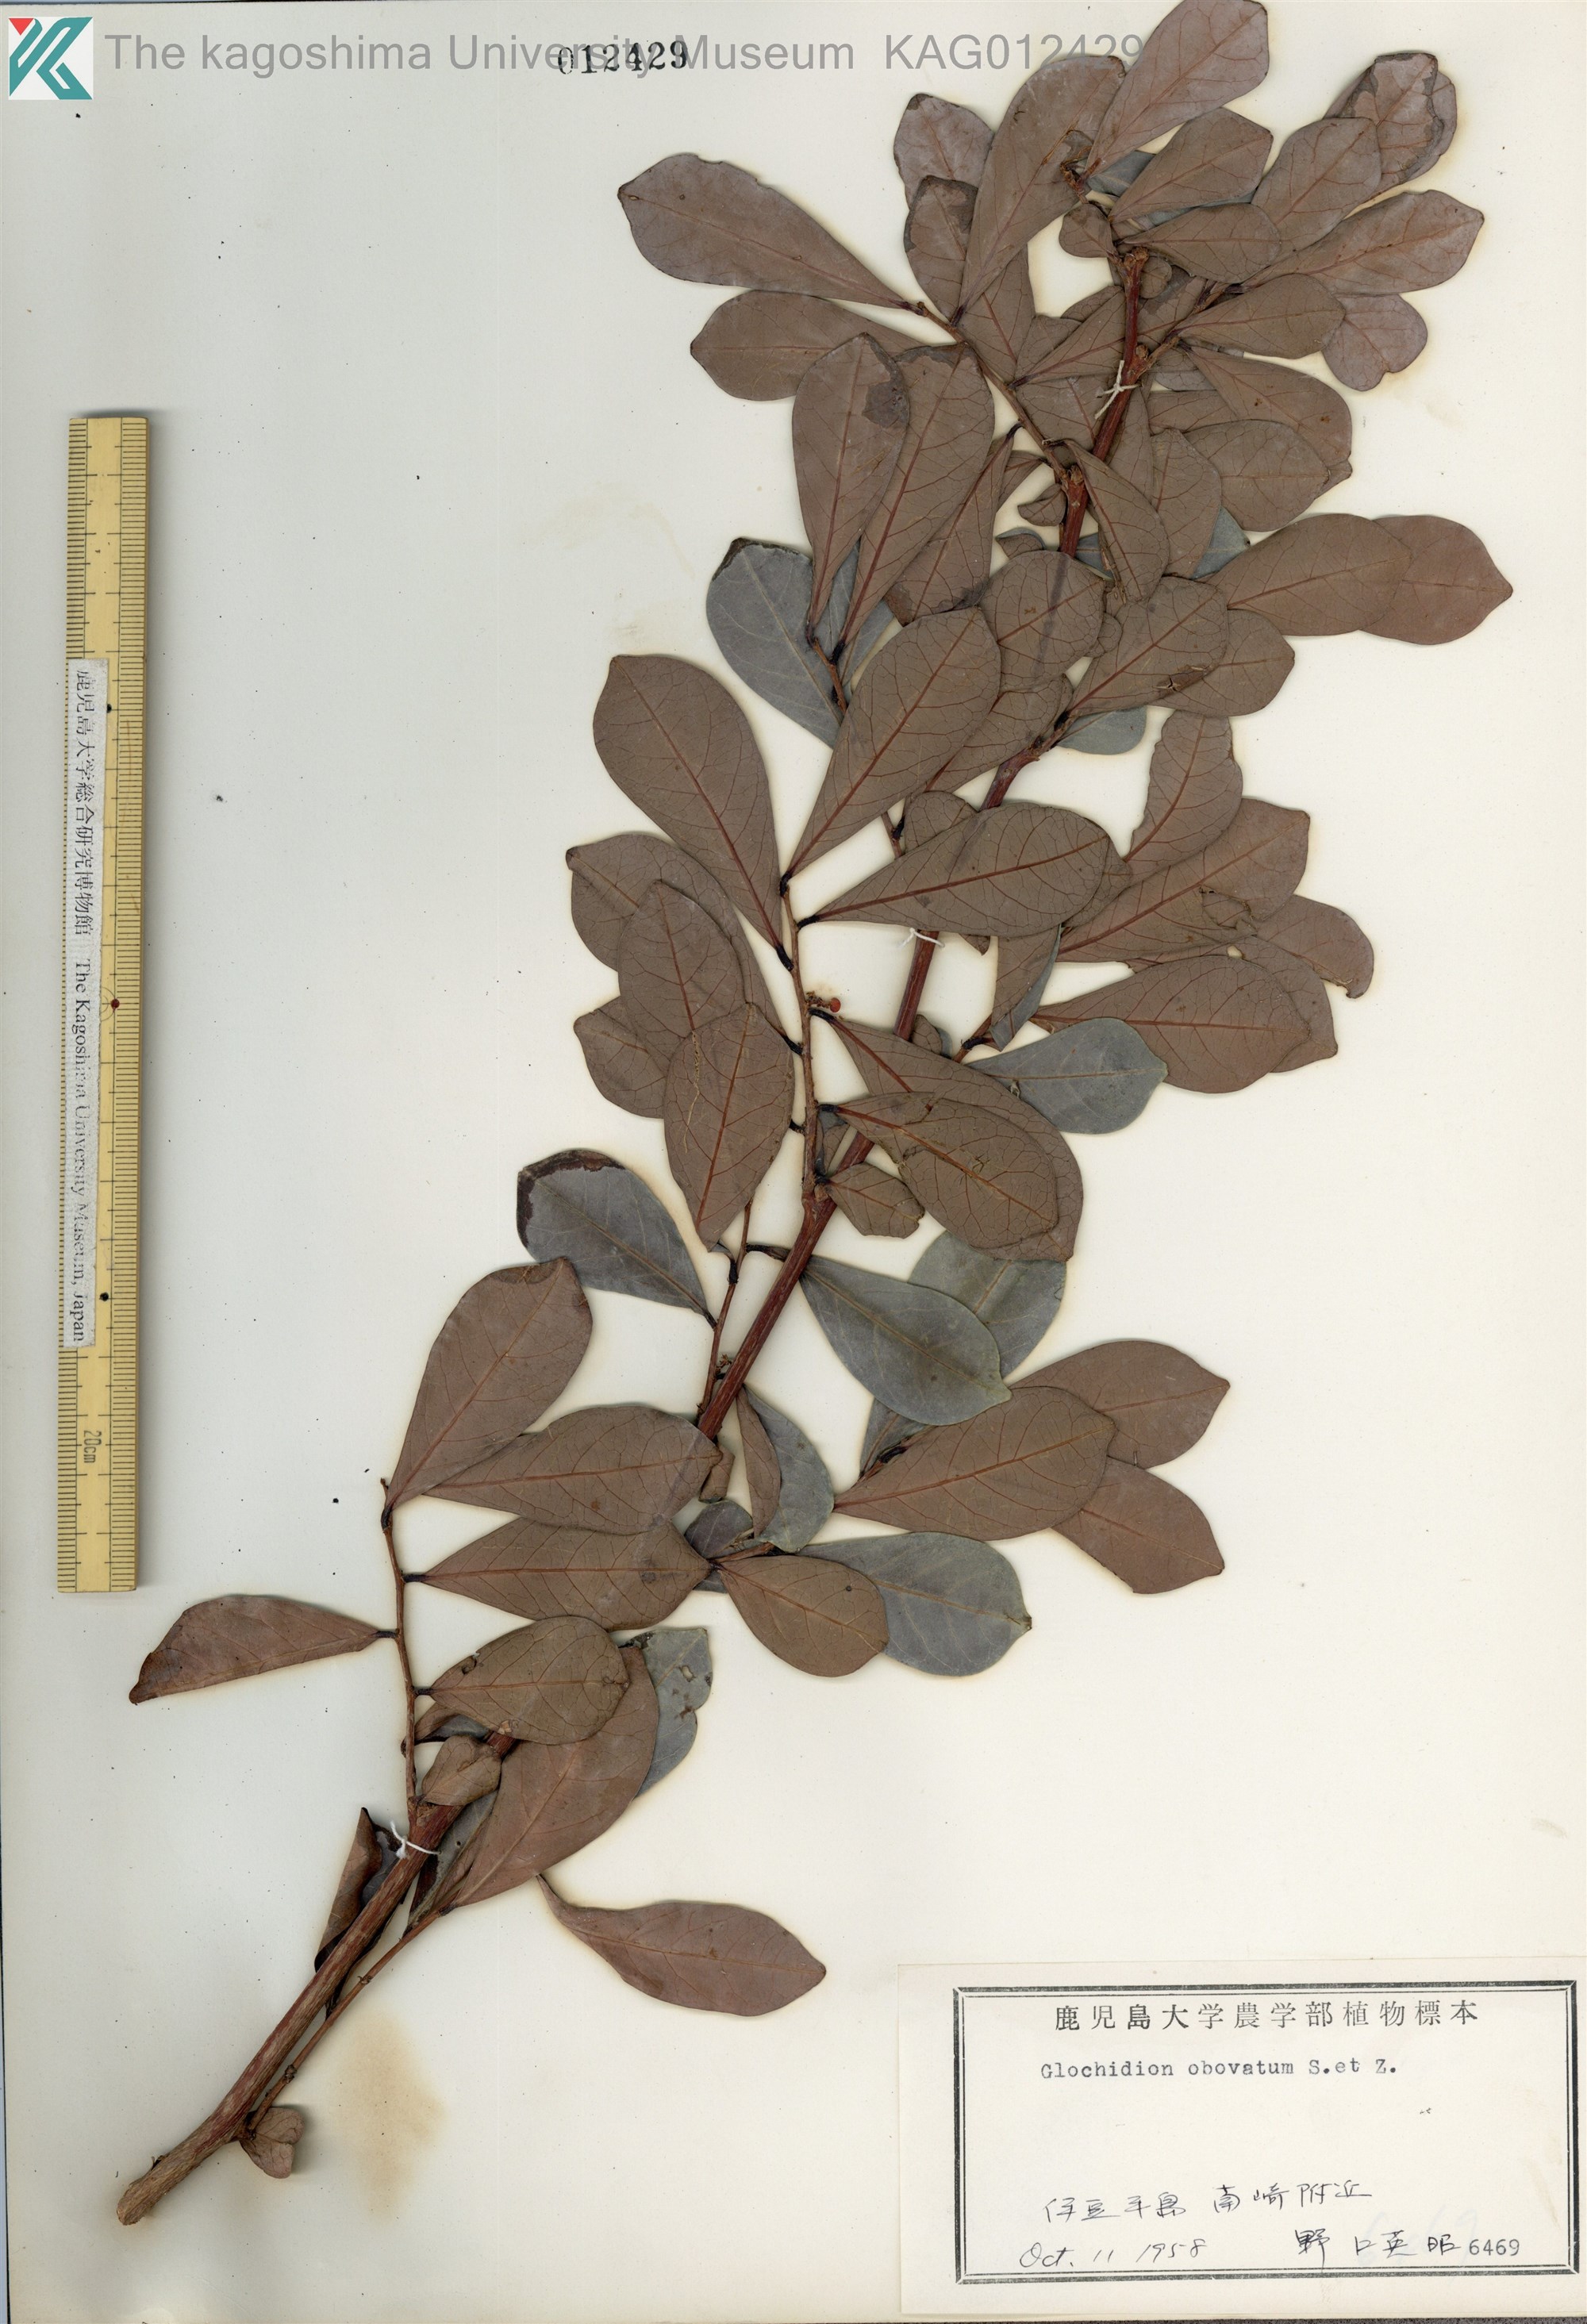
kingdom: Plantae
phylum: Tracheophyta
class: Magnoliopsida
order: Malpighiales
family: Phyllanthaceae
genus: Glochidion
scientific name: Glochidion obovatum
